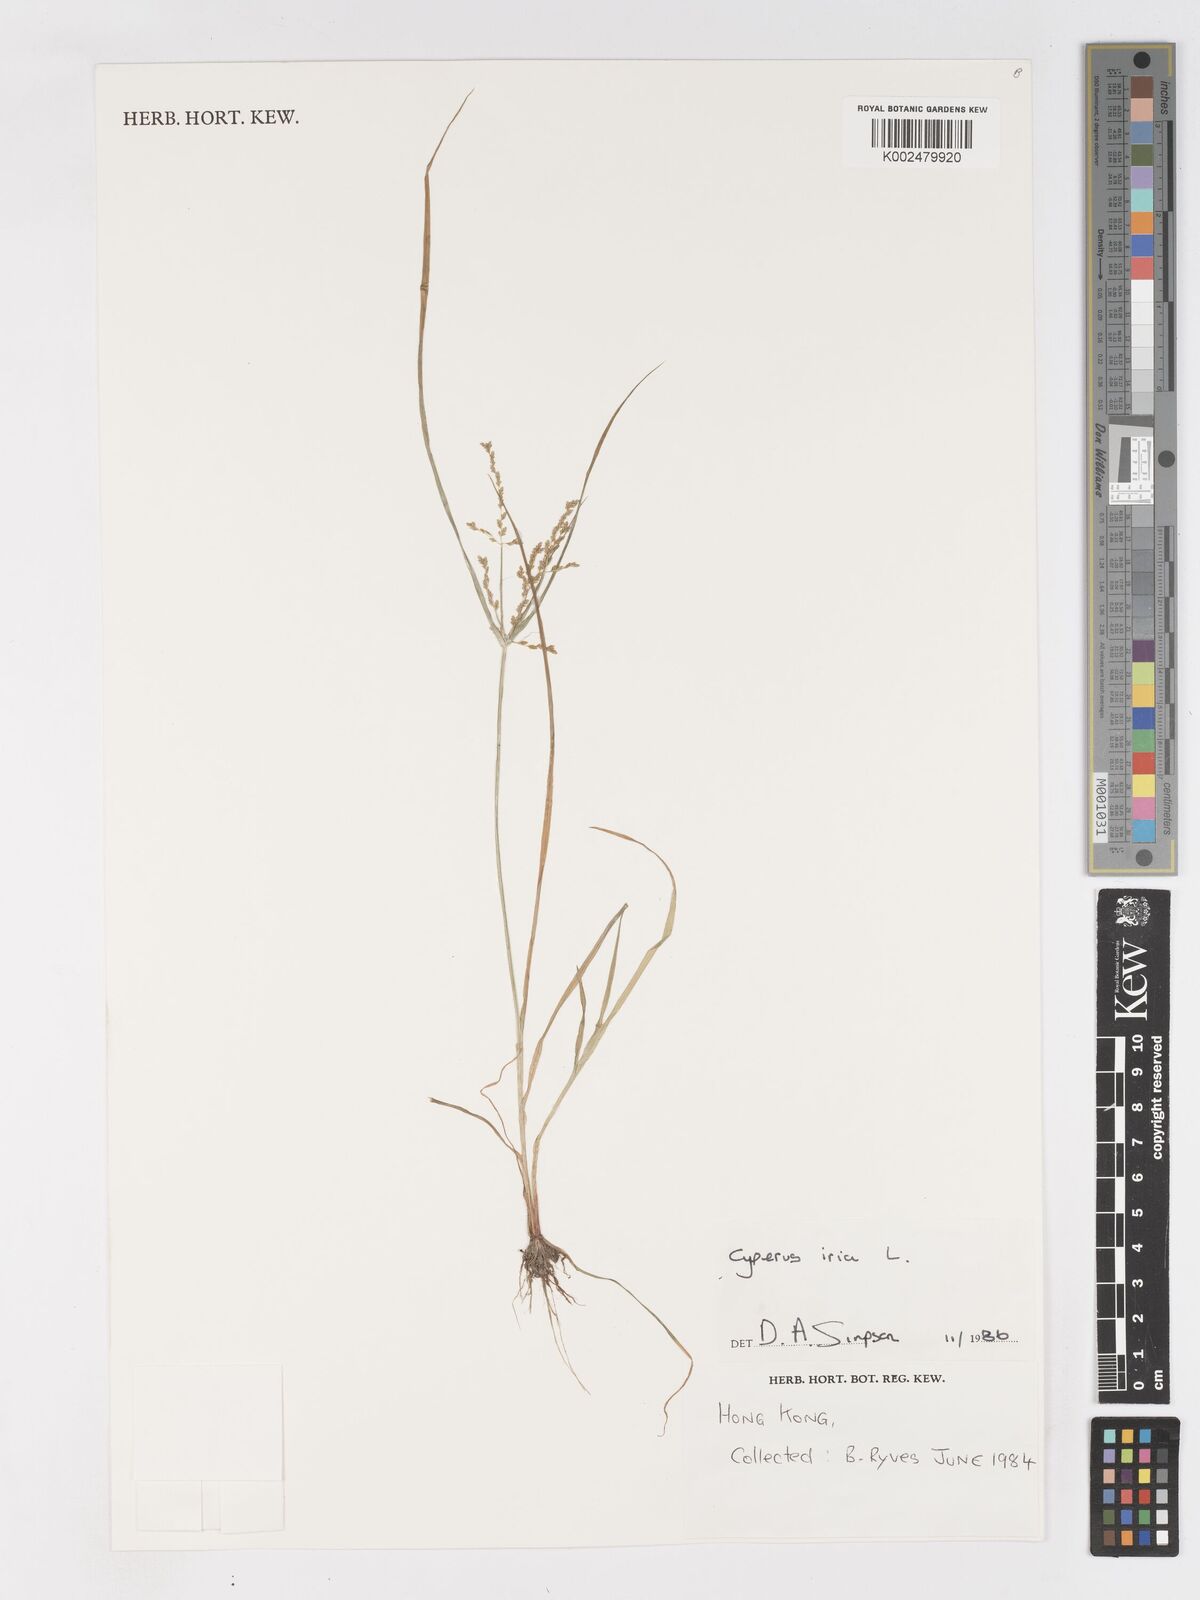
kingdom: Plantae
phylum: Tracheophyta
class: Liliopsida
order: Poales
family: Cyperaceae
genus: Cyperus
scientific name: Cyperus iria
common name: Ricefield flatsedge
